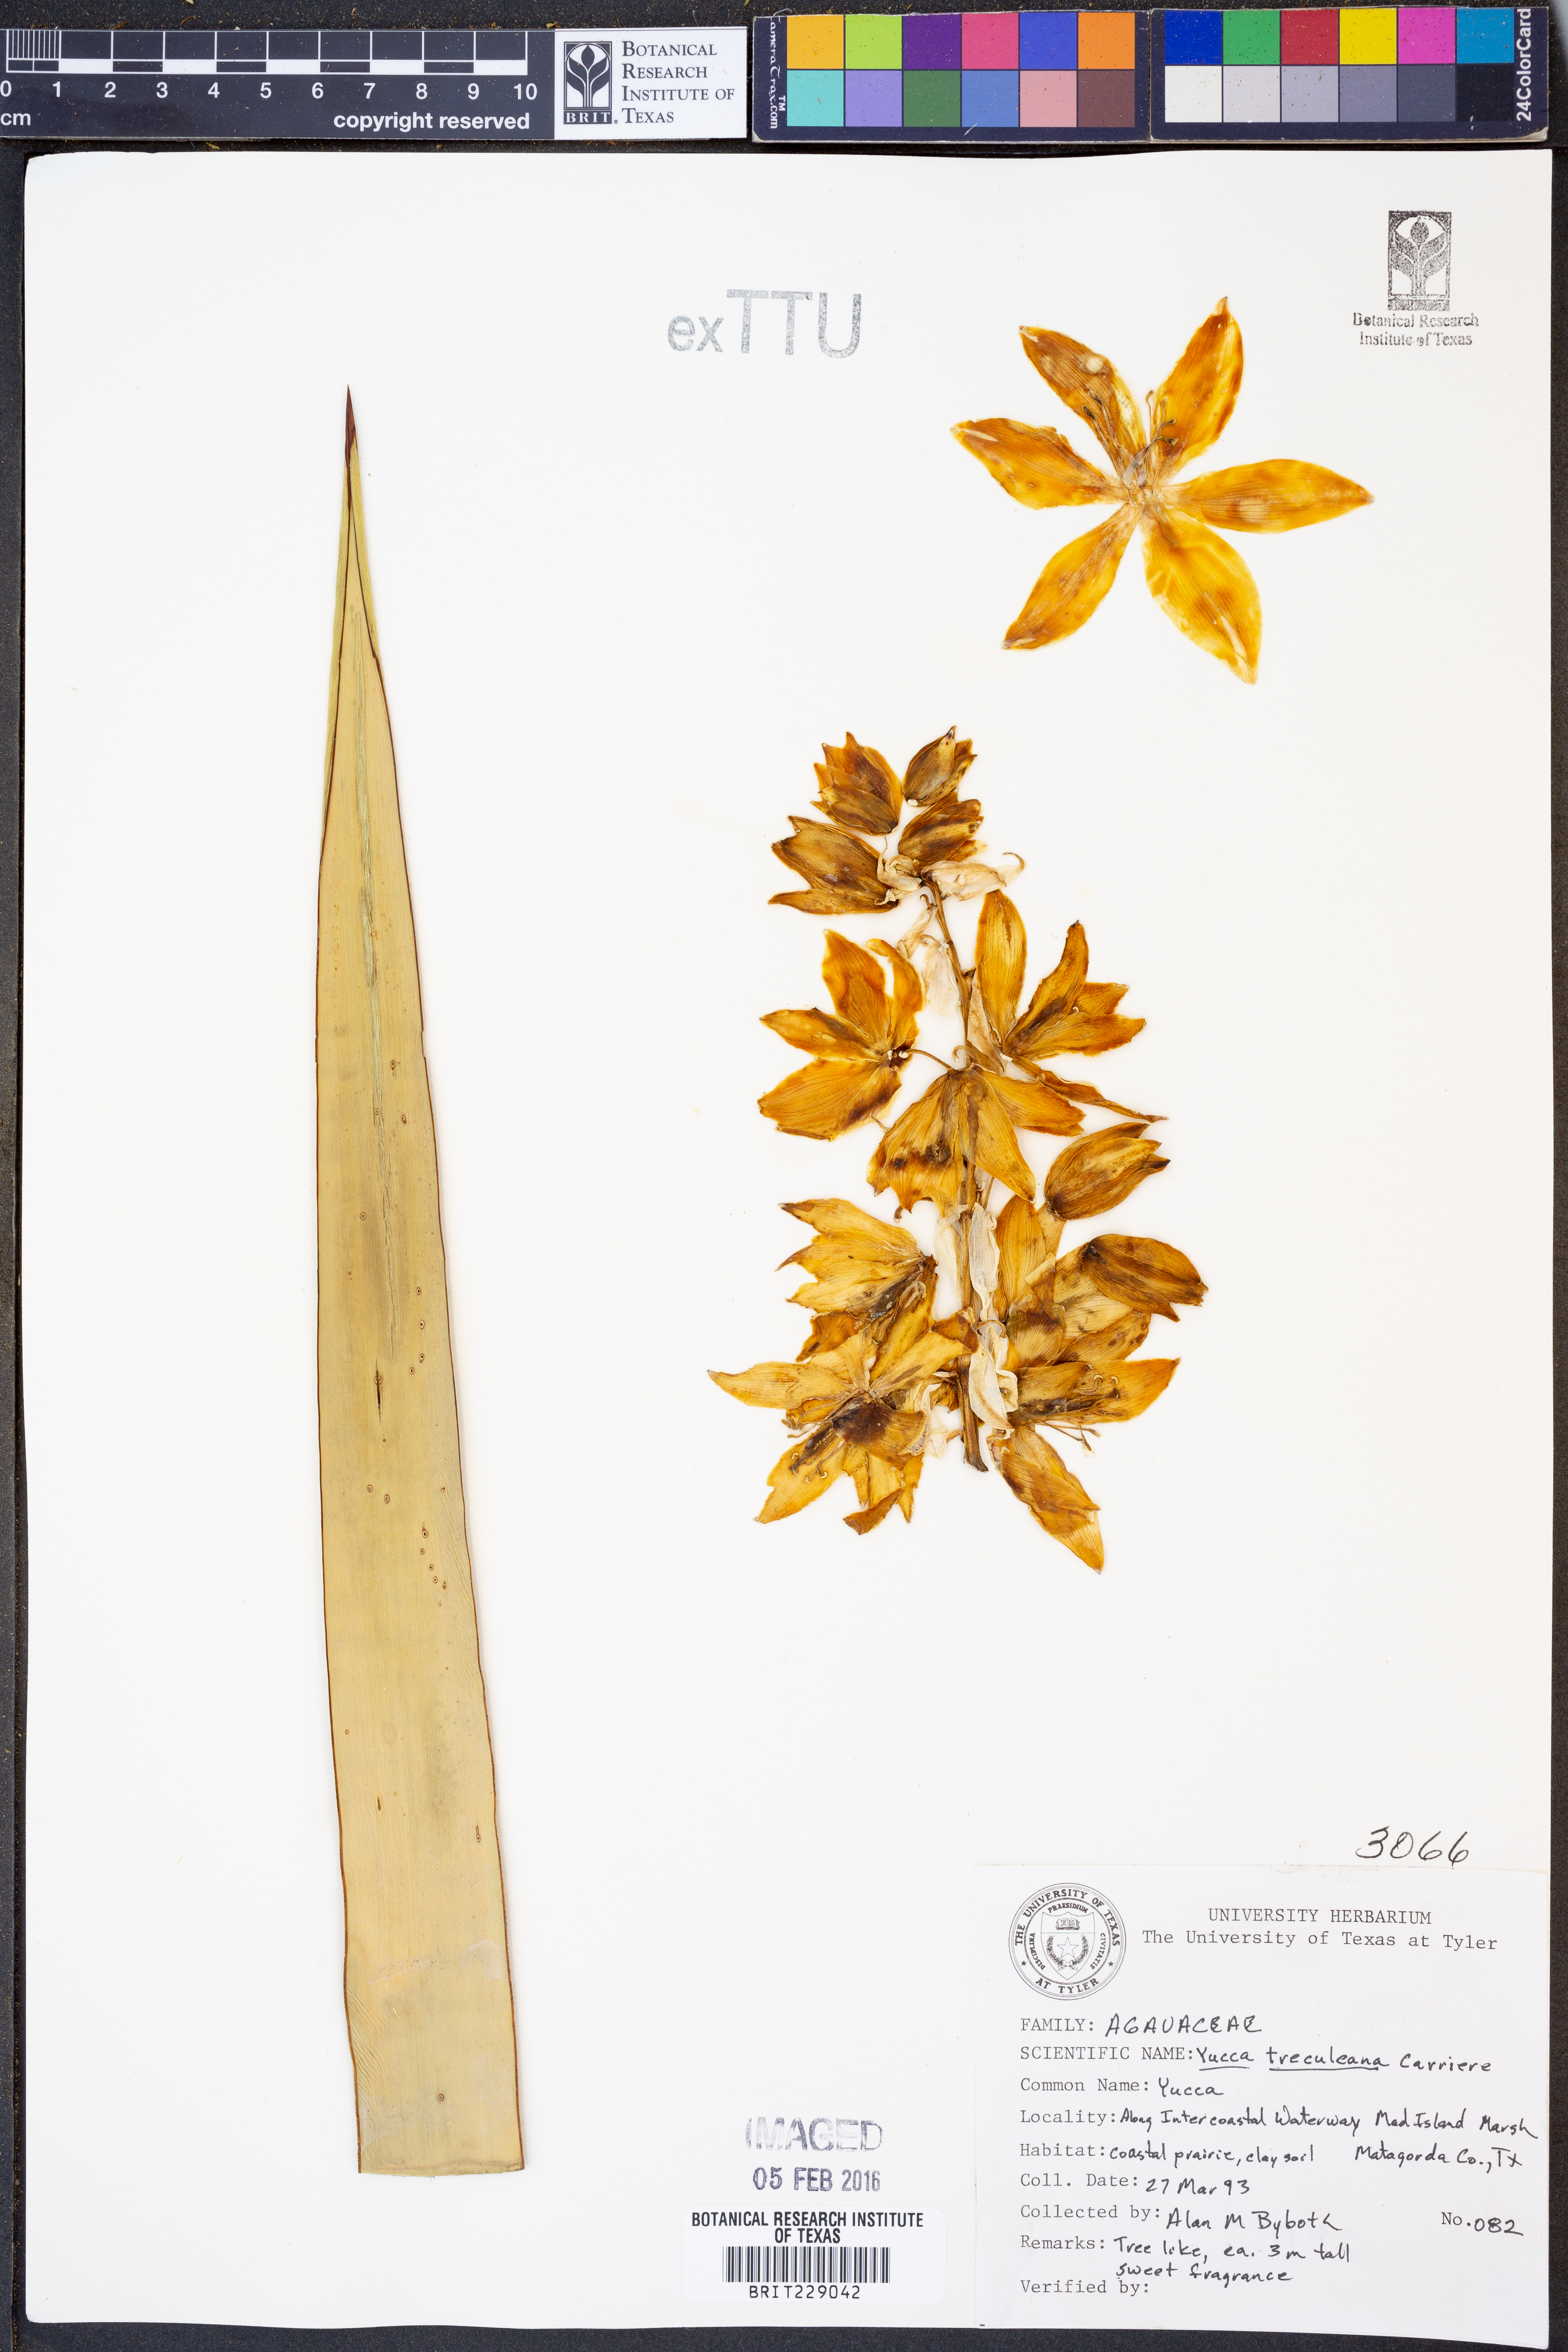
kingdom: Plantae
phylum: Tracheophyta
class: Liliopsida
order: Asparagales
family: Asparagaceae
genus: Yucca
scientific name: Yucca treculeana
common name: Spanish bayonet
